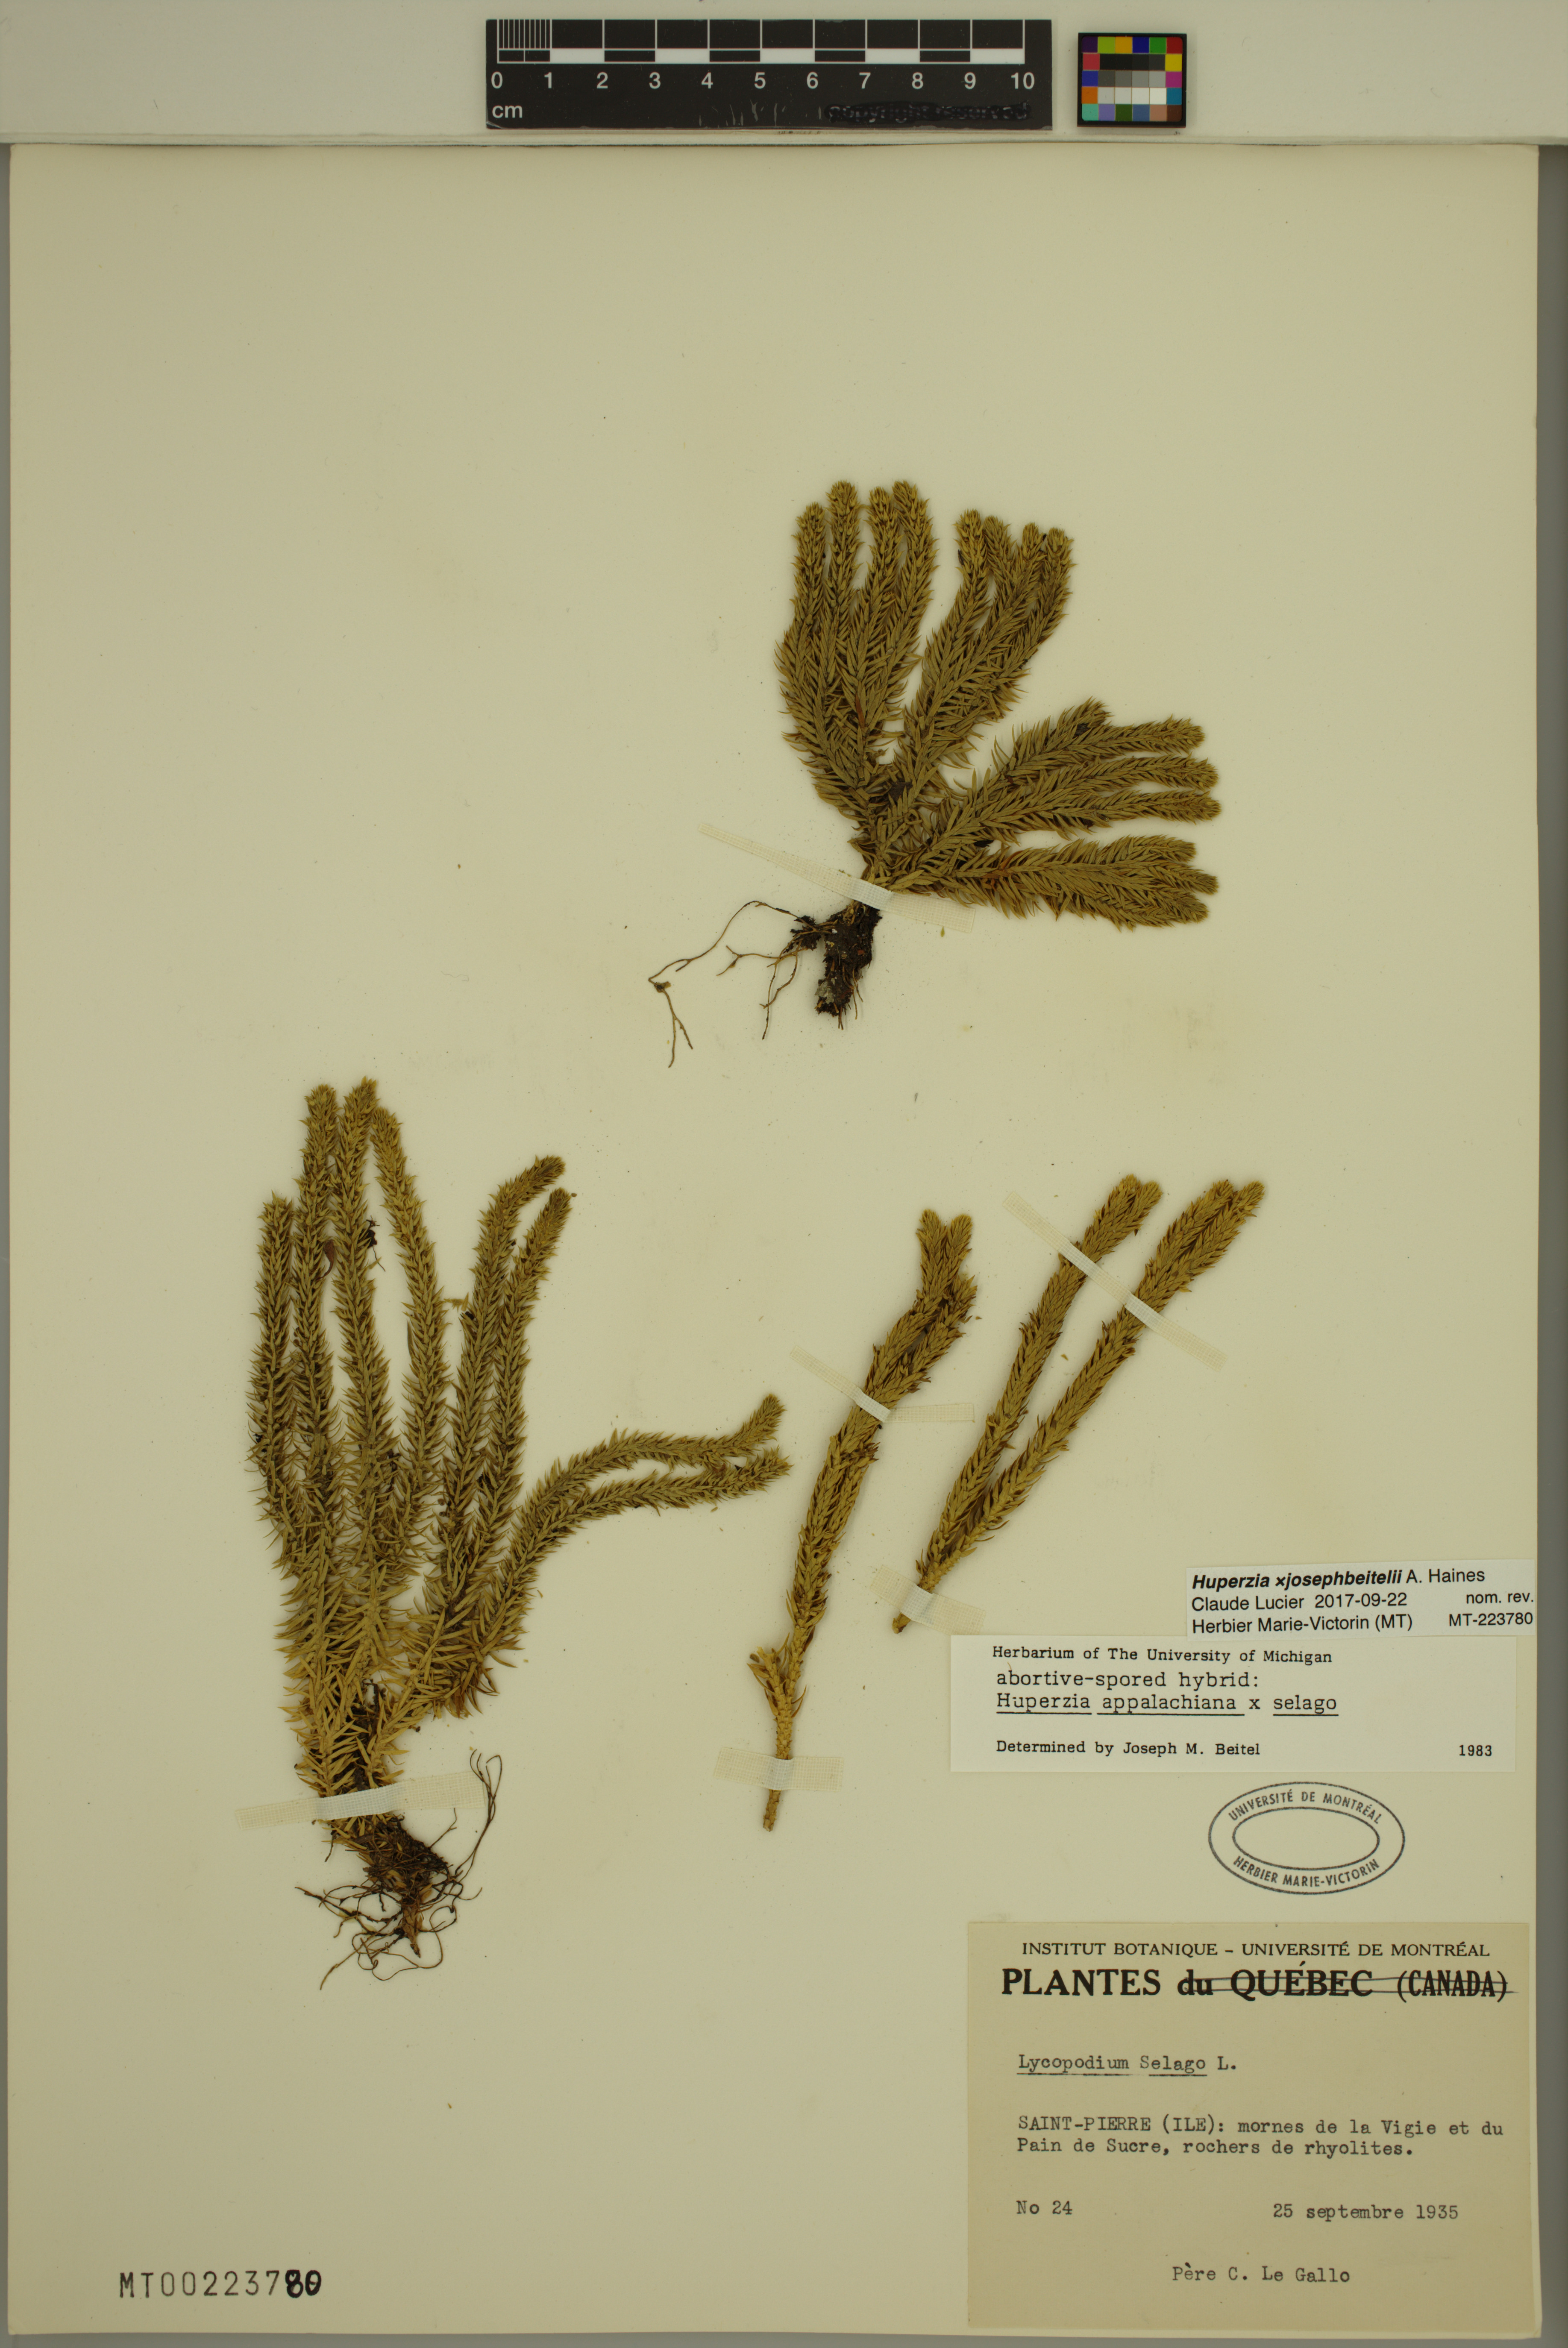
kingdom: Plantae
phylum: Tracheophyta
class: Lycopodiopsida
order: Lycopodiales
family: Lycopodiaceae
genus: Huperzia
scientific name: Huperzia josephbeitelii
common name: Beitel's clubmoss
